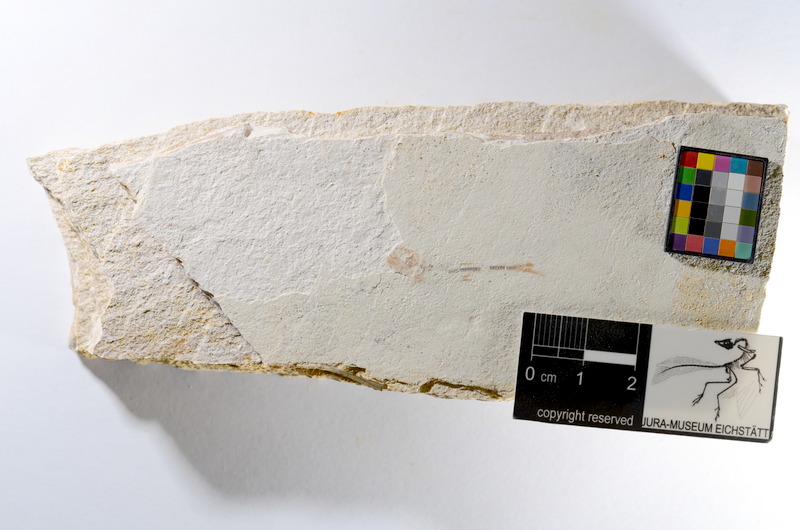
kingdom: Animalia
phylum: Chordata
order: Salmoniformes
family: Orthogonikleithridae
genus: Orthogonikleithrus
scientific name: Orthogonikleithrus hoelli
